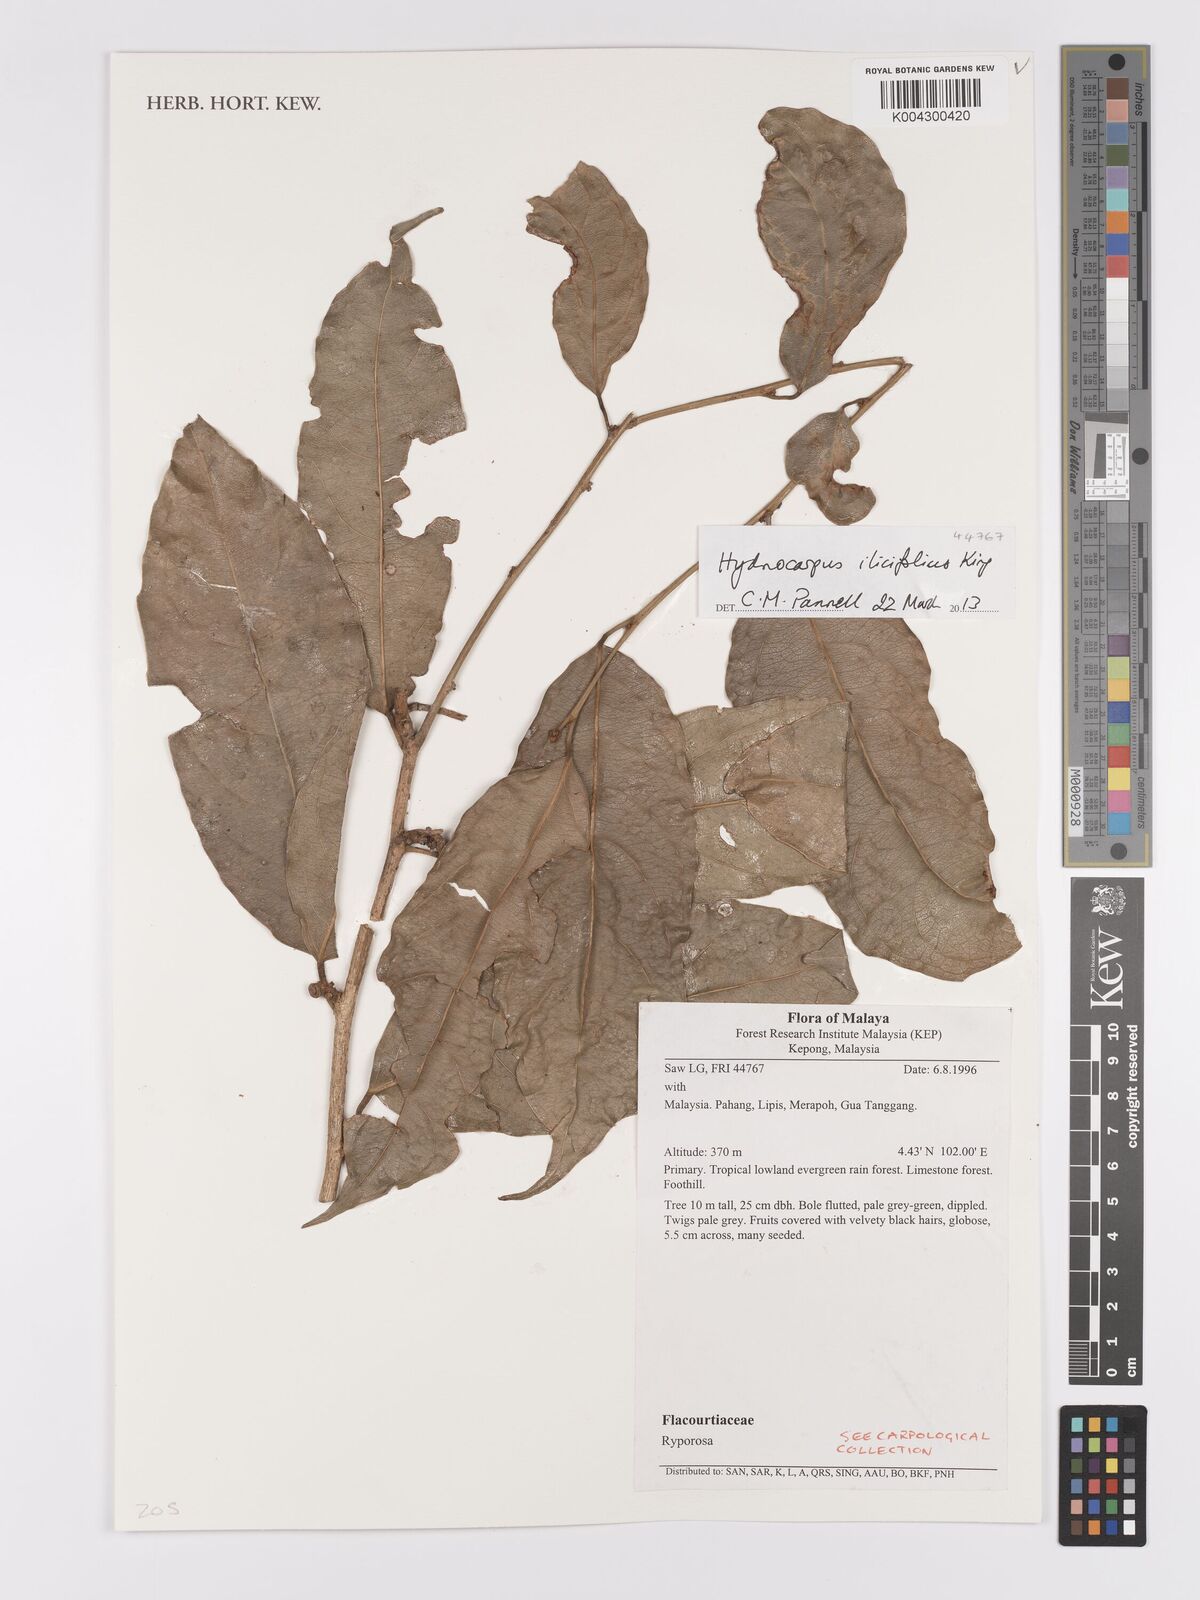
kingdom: Plantae
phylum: Tracheophyta
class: Magnoliopsida
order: Malpighiales
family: Achariaceae
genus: Hydnocarpus
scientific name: Hydnocarpus ilicifolius
